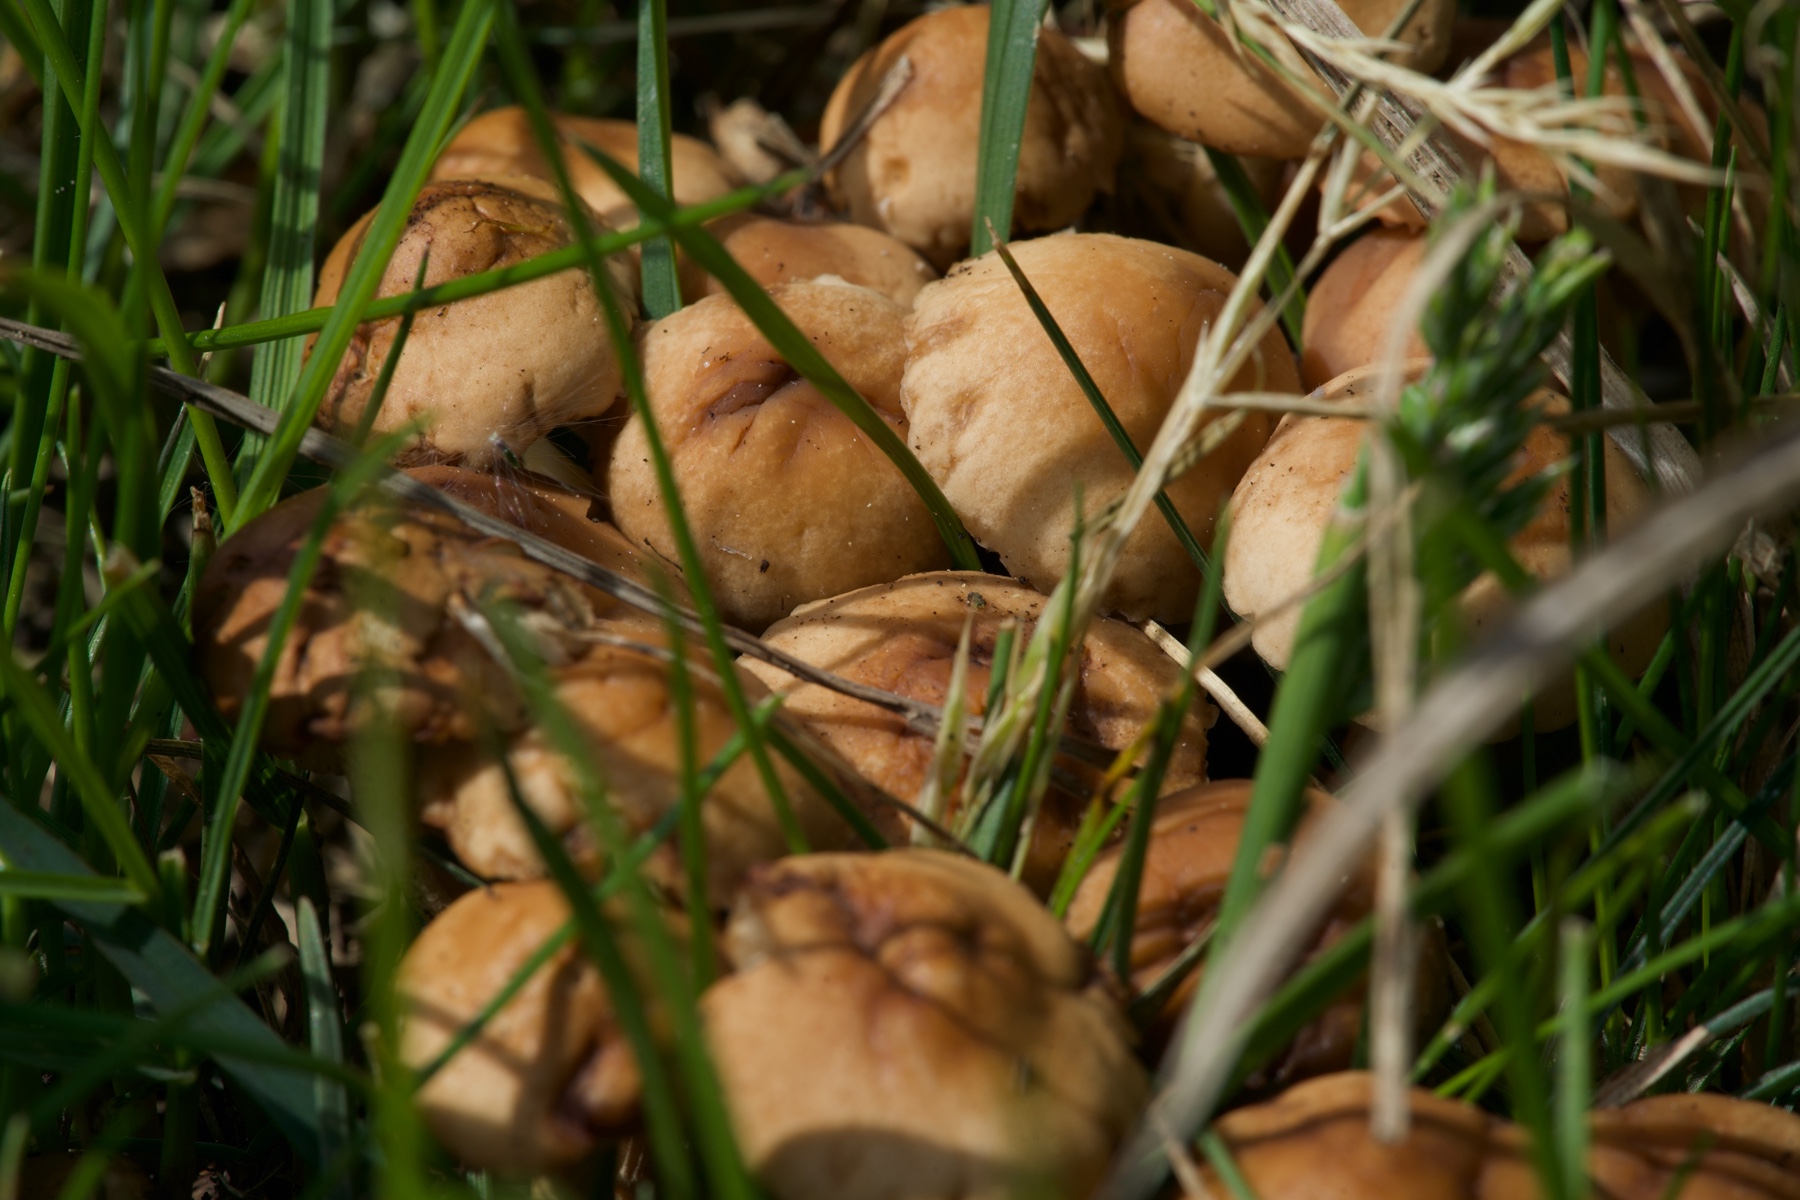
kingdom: Fungi
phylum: Basidiomycota
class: Agaricomycetes
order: Agaricales
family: Marasmiaceae
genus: Marasmius
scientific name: Marasmius oreades
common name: elledans-bruskhat
